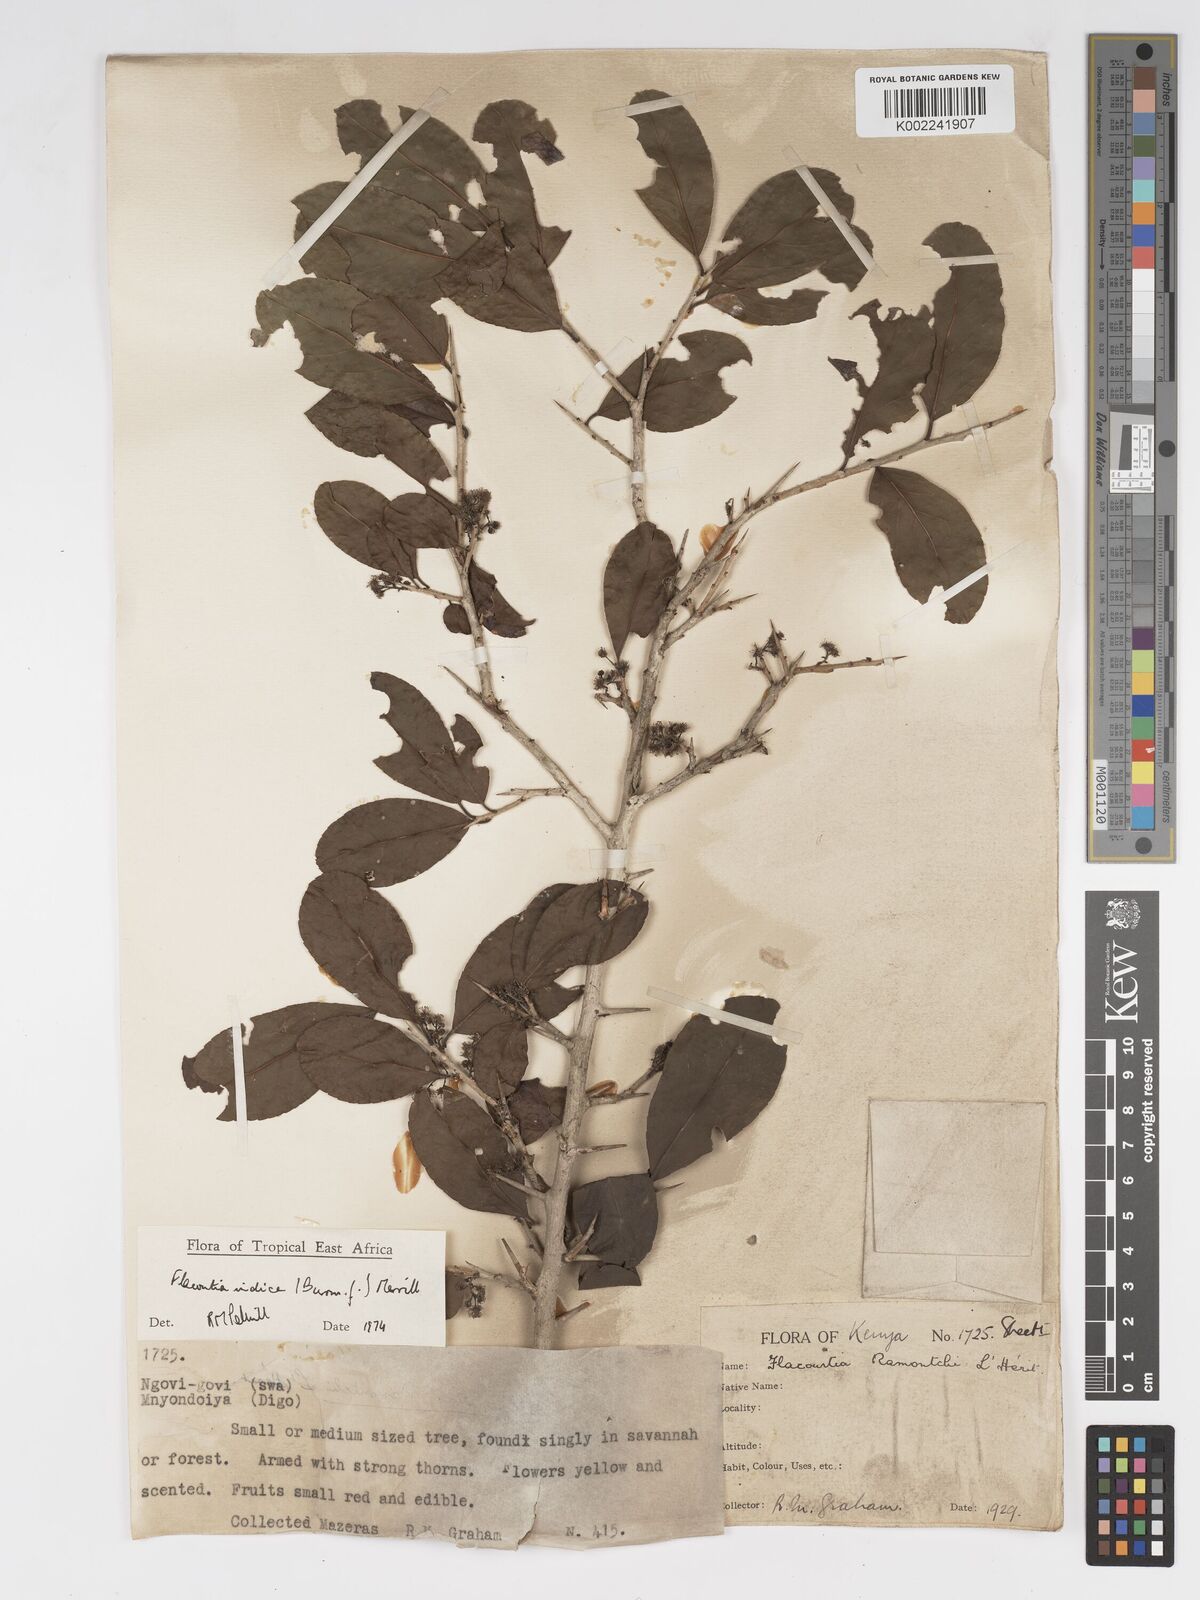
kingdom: Plantae
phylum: Tracheophyta
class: Magnoliopsida
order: Malpighiales
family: Salicaceae
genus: Flacourtia
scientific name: Flacourtia indica
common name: Governor's plum
